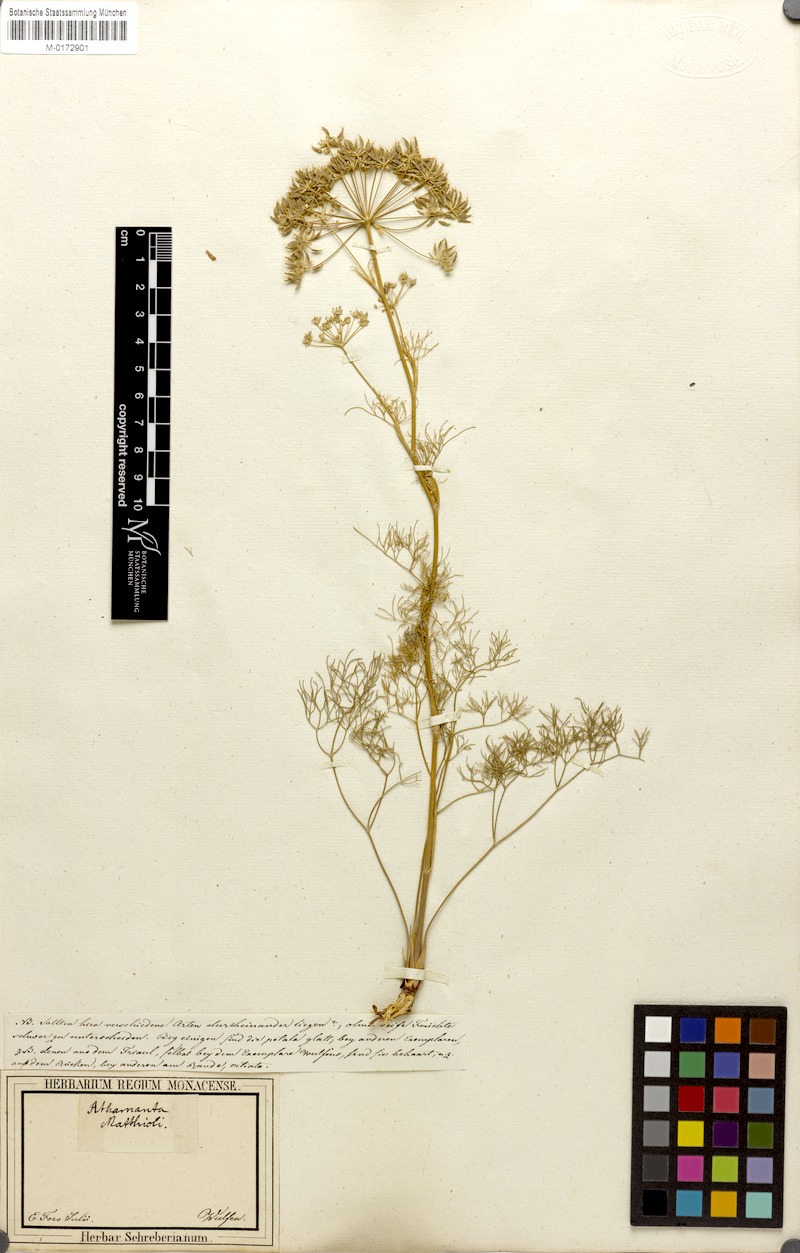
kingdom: Plantae
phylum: Tracheophyta
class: Magnoliopsida
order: Apiales
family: Apiaceae
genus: Athamanta
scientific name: Athamanta turbith
